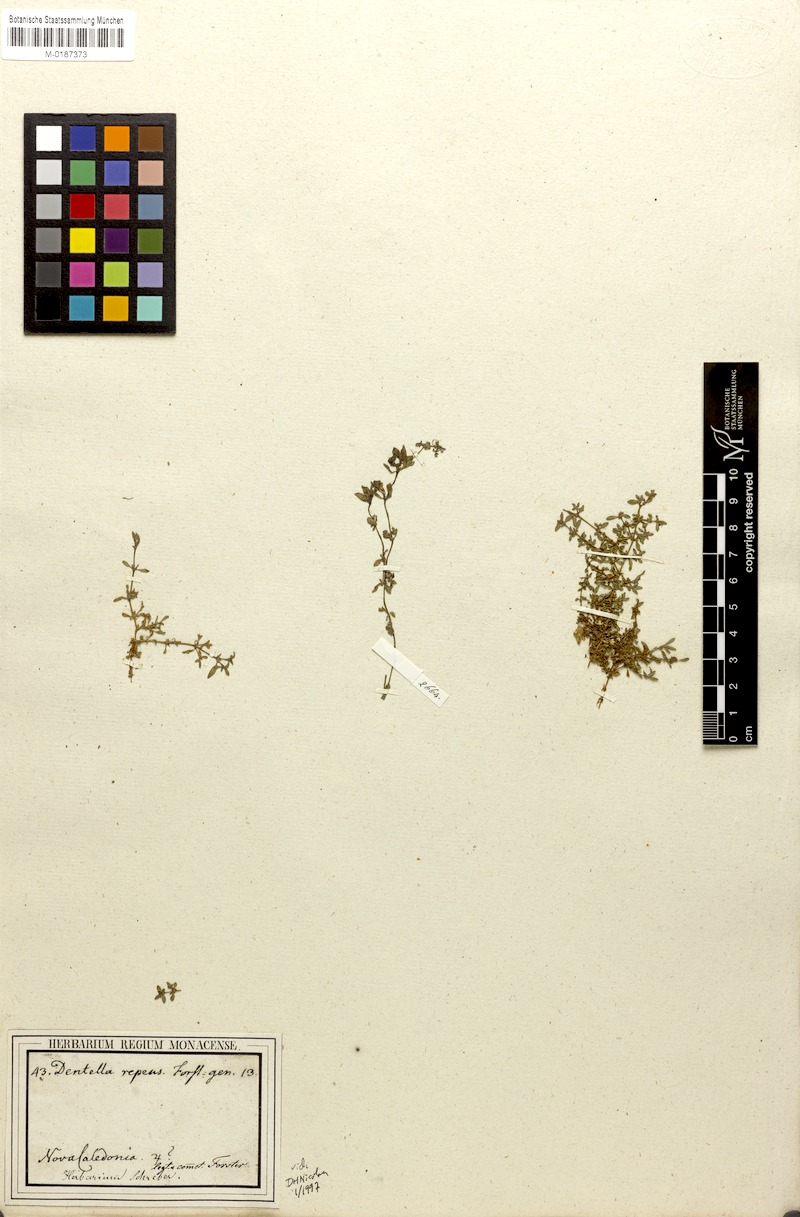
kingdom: Plantae
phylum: Tracheophyta
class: Magnoliopsida
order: Gentianales
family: Rubiaceae
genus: Dentella
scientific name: Dentella repens
